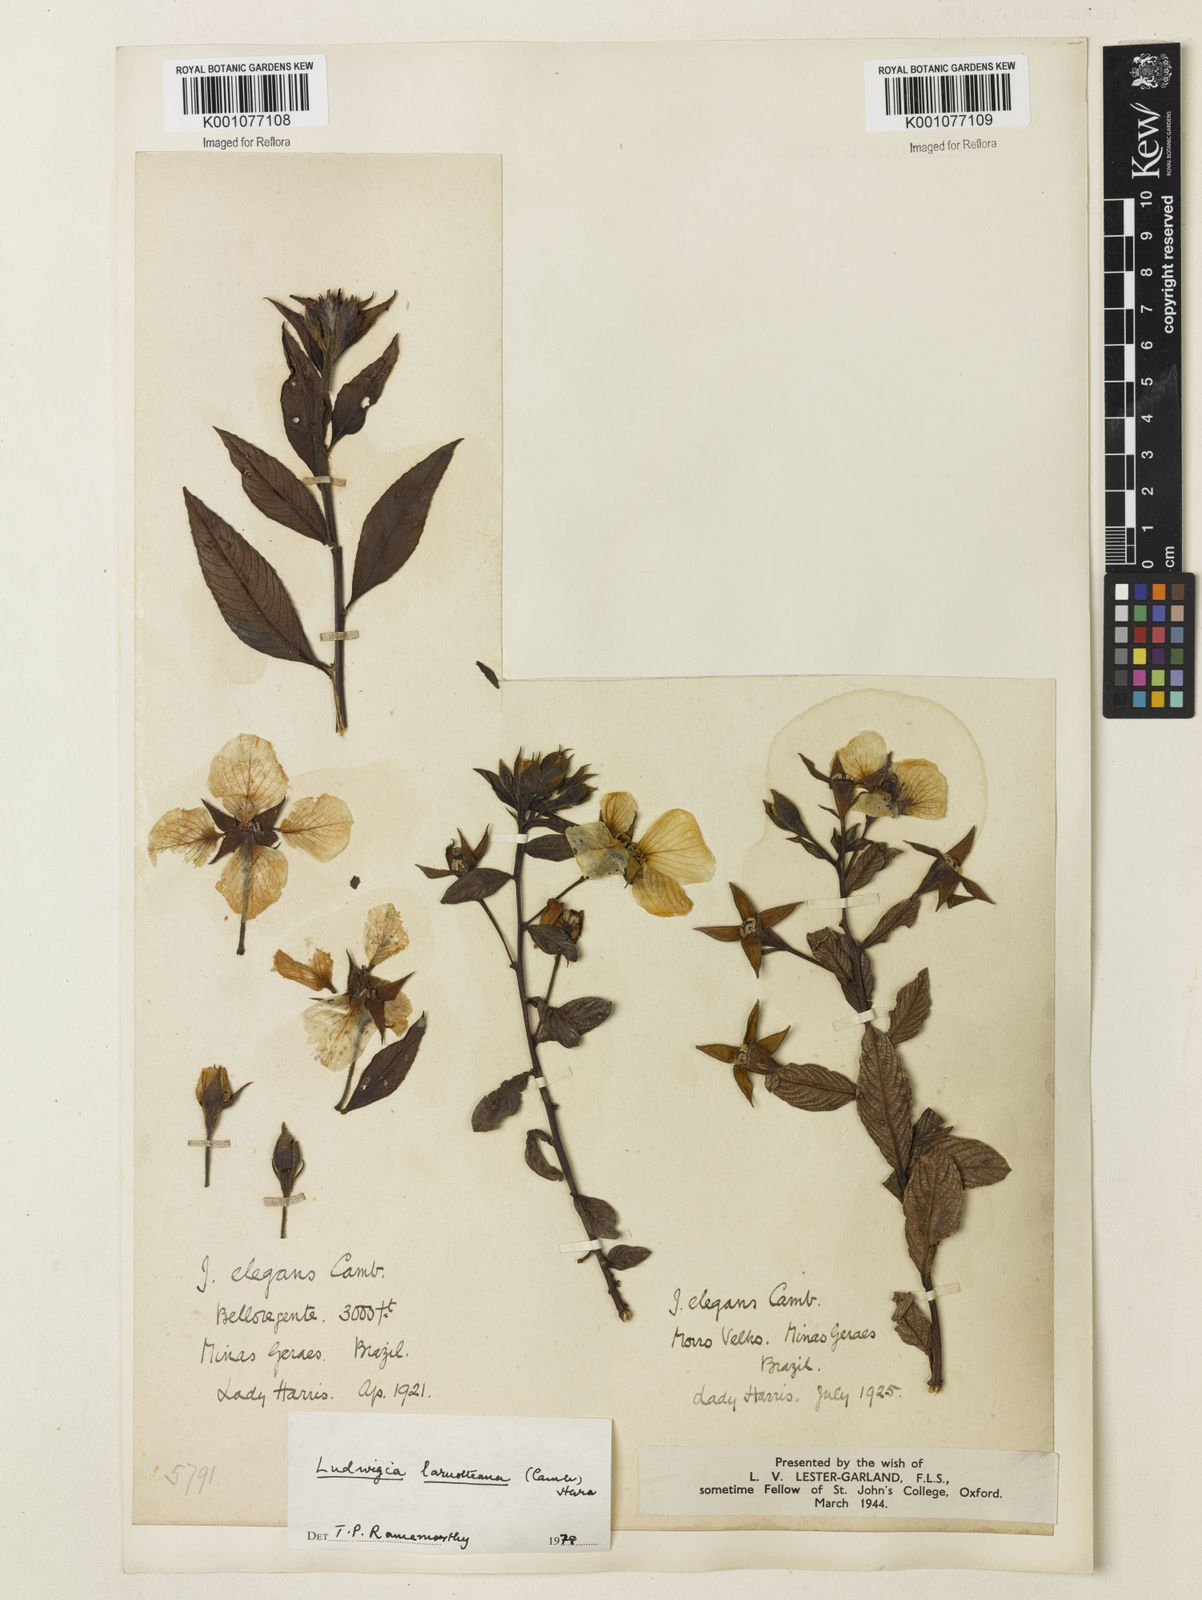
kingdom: Plantae
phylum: Tracheophyta
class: Magnoliopsida
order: Myrtales
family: Onagraceae
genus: Ludwigia
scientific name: Ludwigia laruotteana
